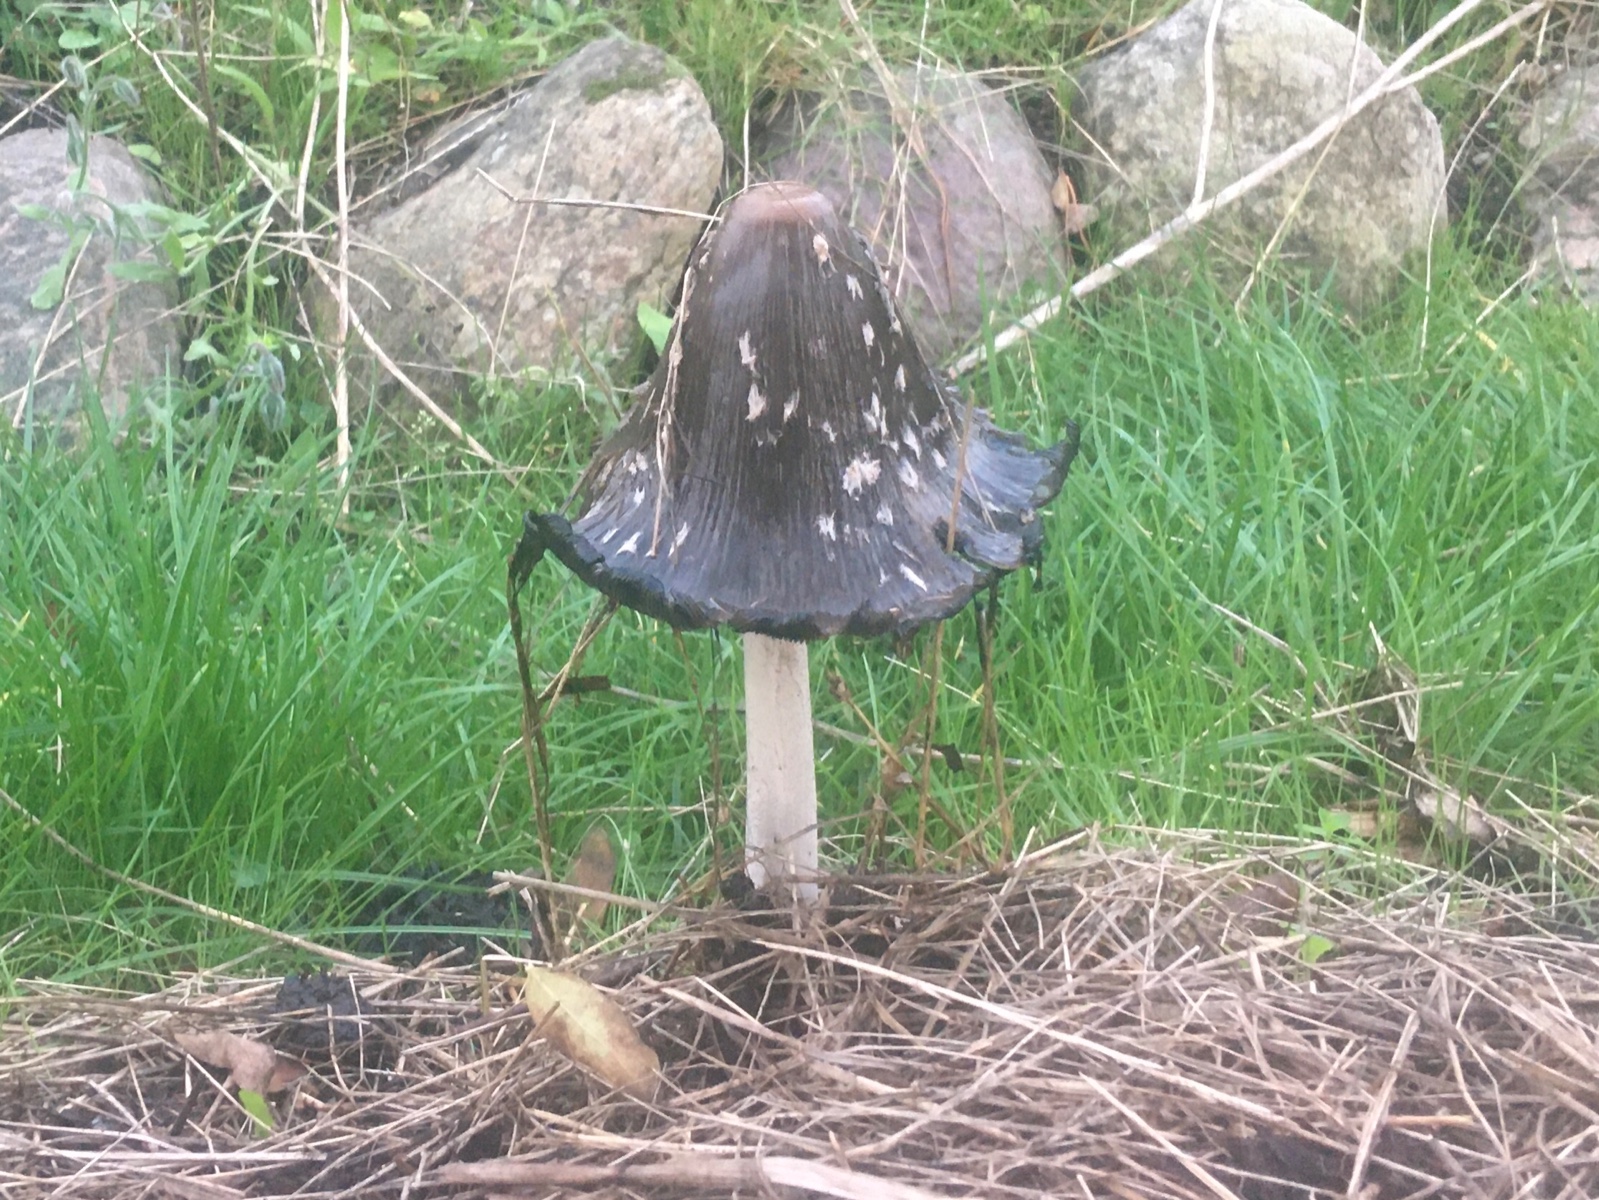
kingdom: Fungi
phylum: Basidiomycota
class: Agaricomycetes
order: Agaricales
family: Psathyrellaceae
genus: Coprinopsis
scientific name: Coprinopsis picacea
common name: skade-blækhat
